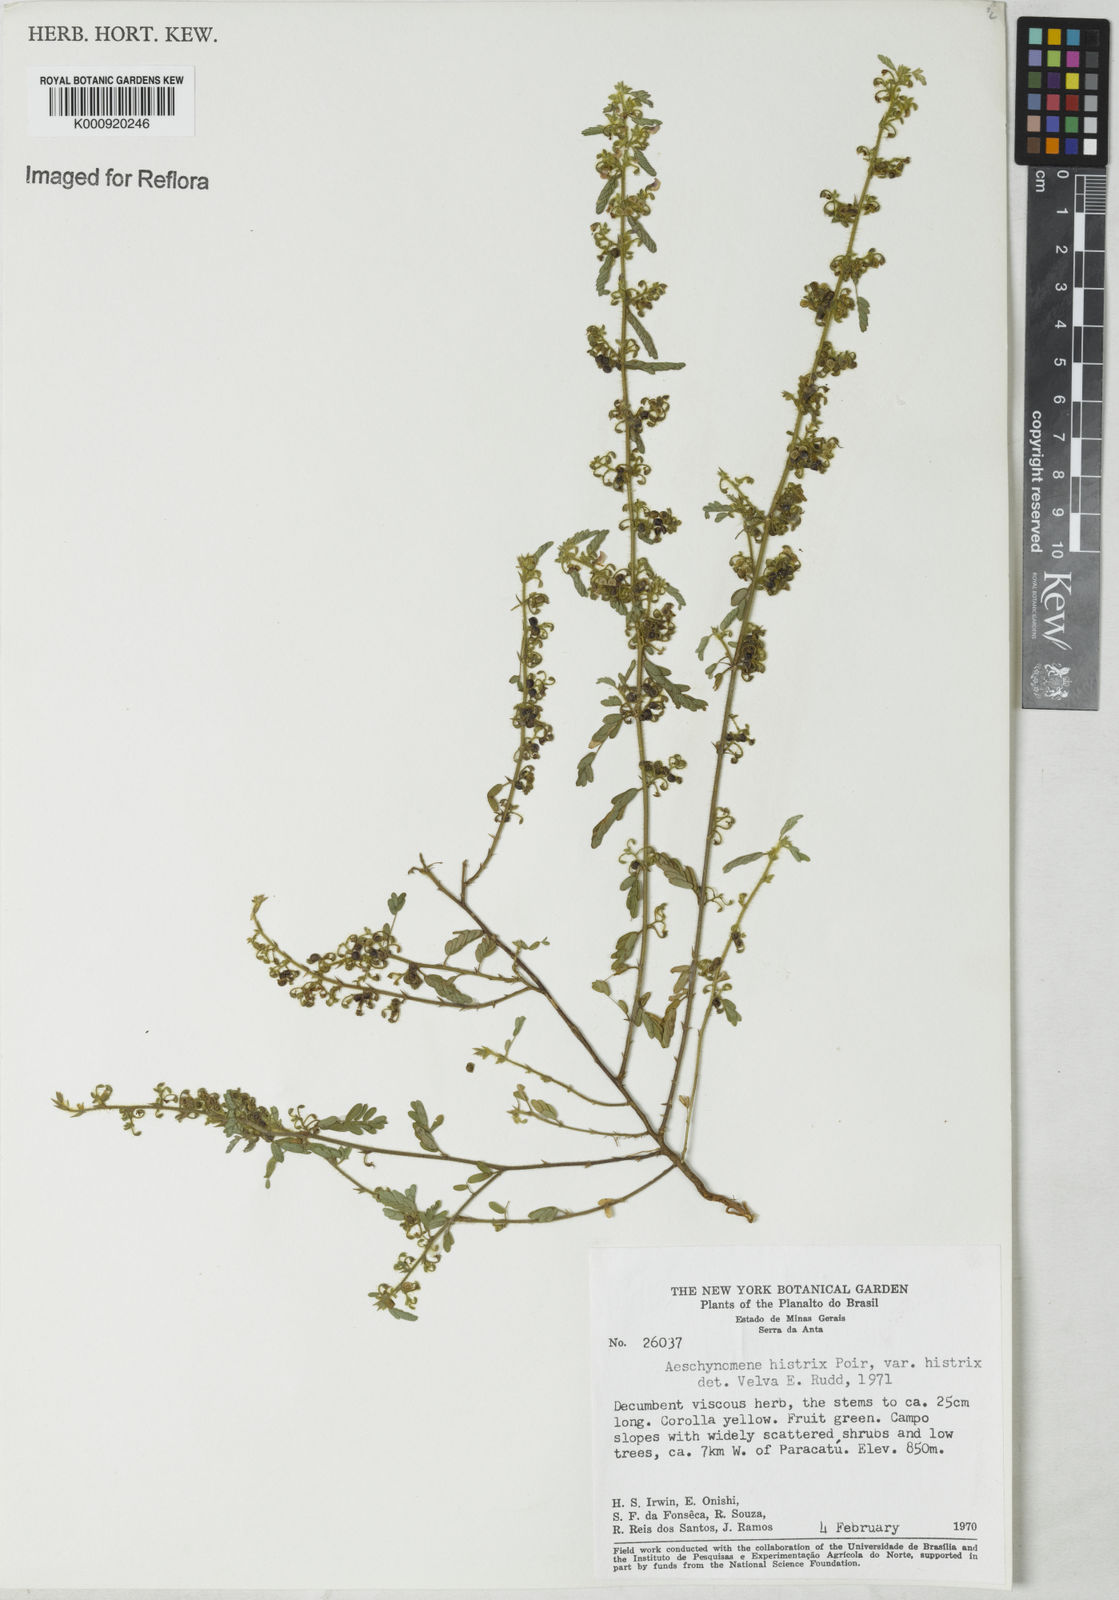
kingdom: Plantae
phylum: Tracheophyta
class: Magnoliopsida
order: Fabales
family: Fabaceae
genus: Ctenodon
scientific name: Ctenodon histrix
